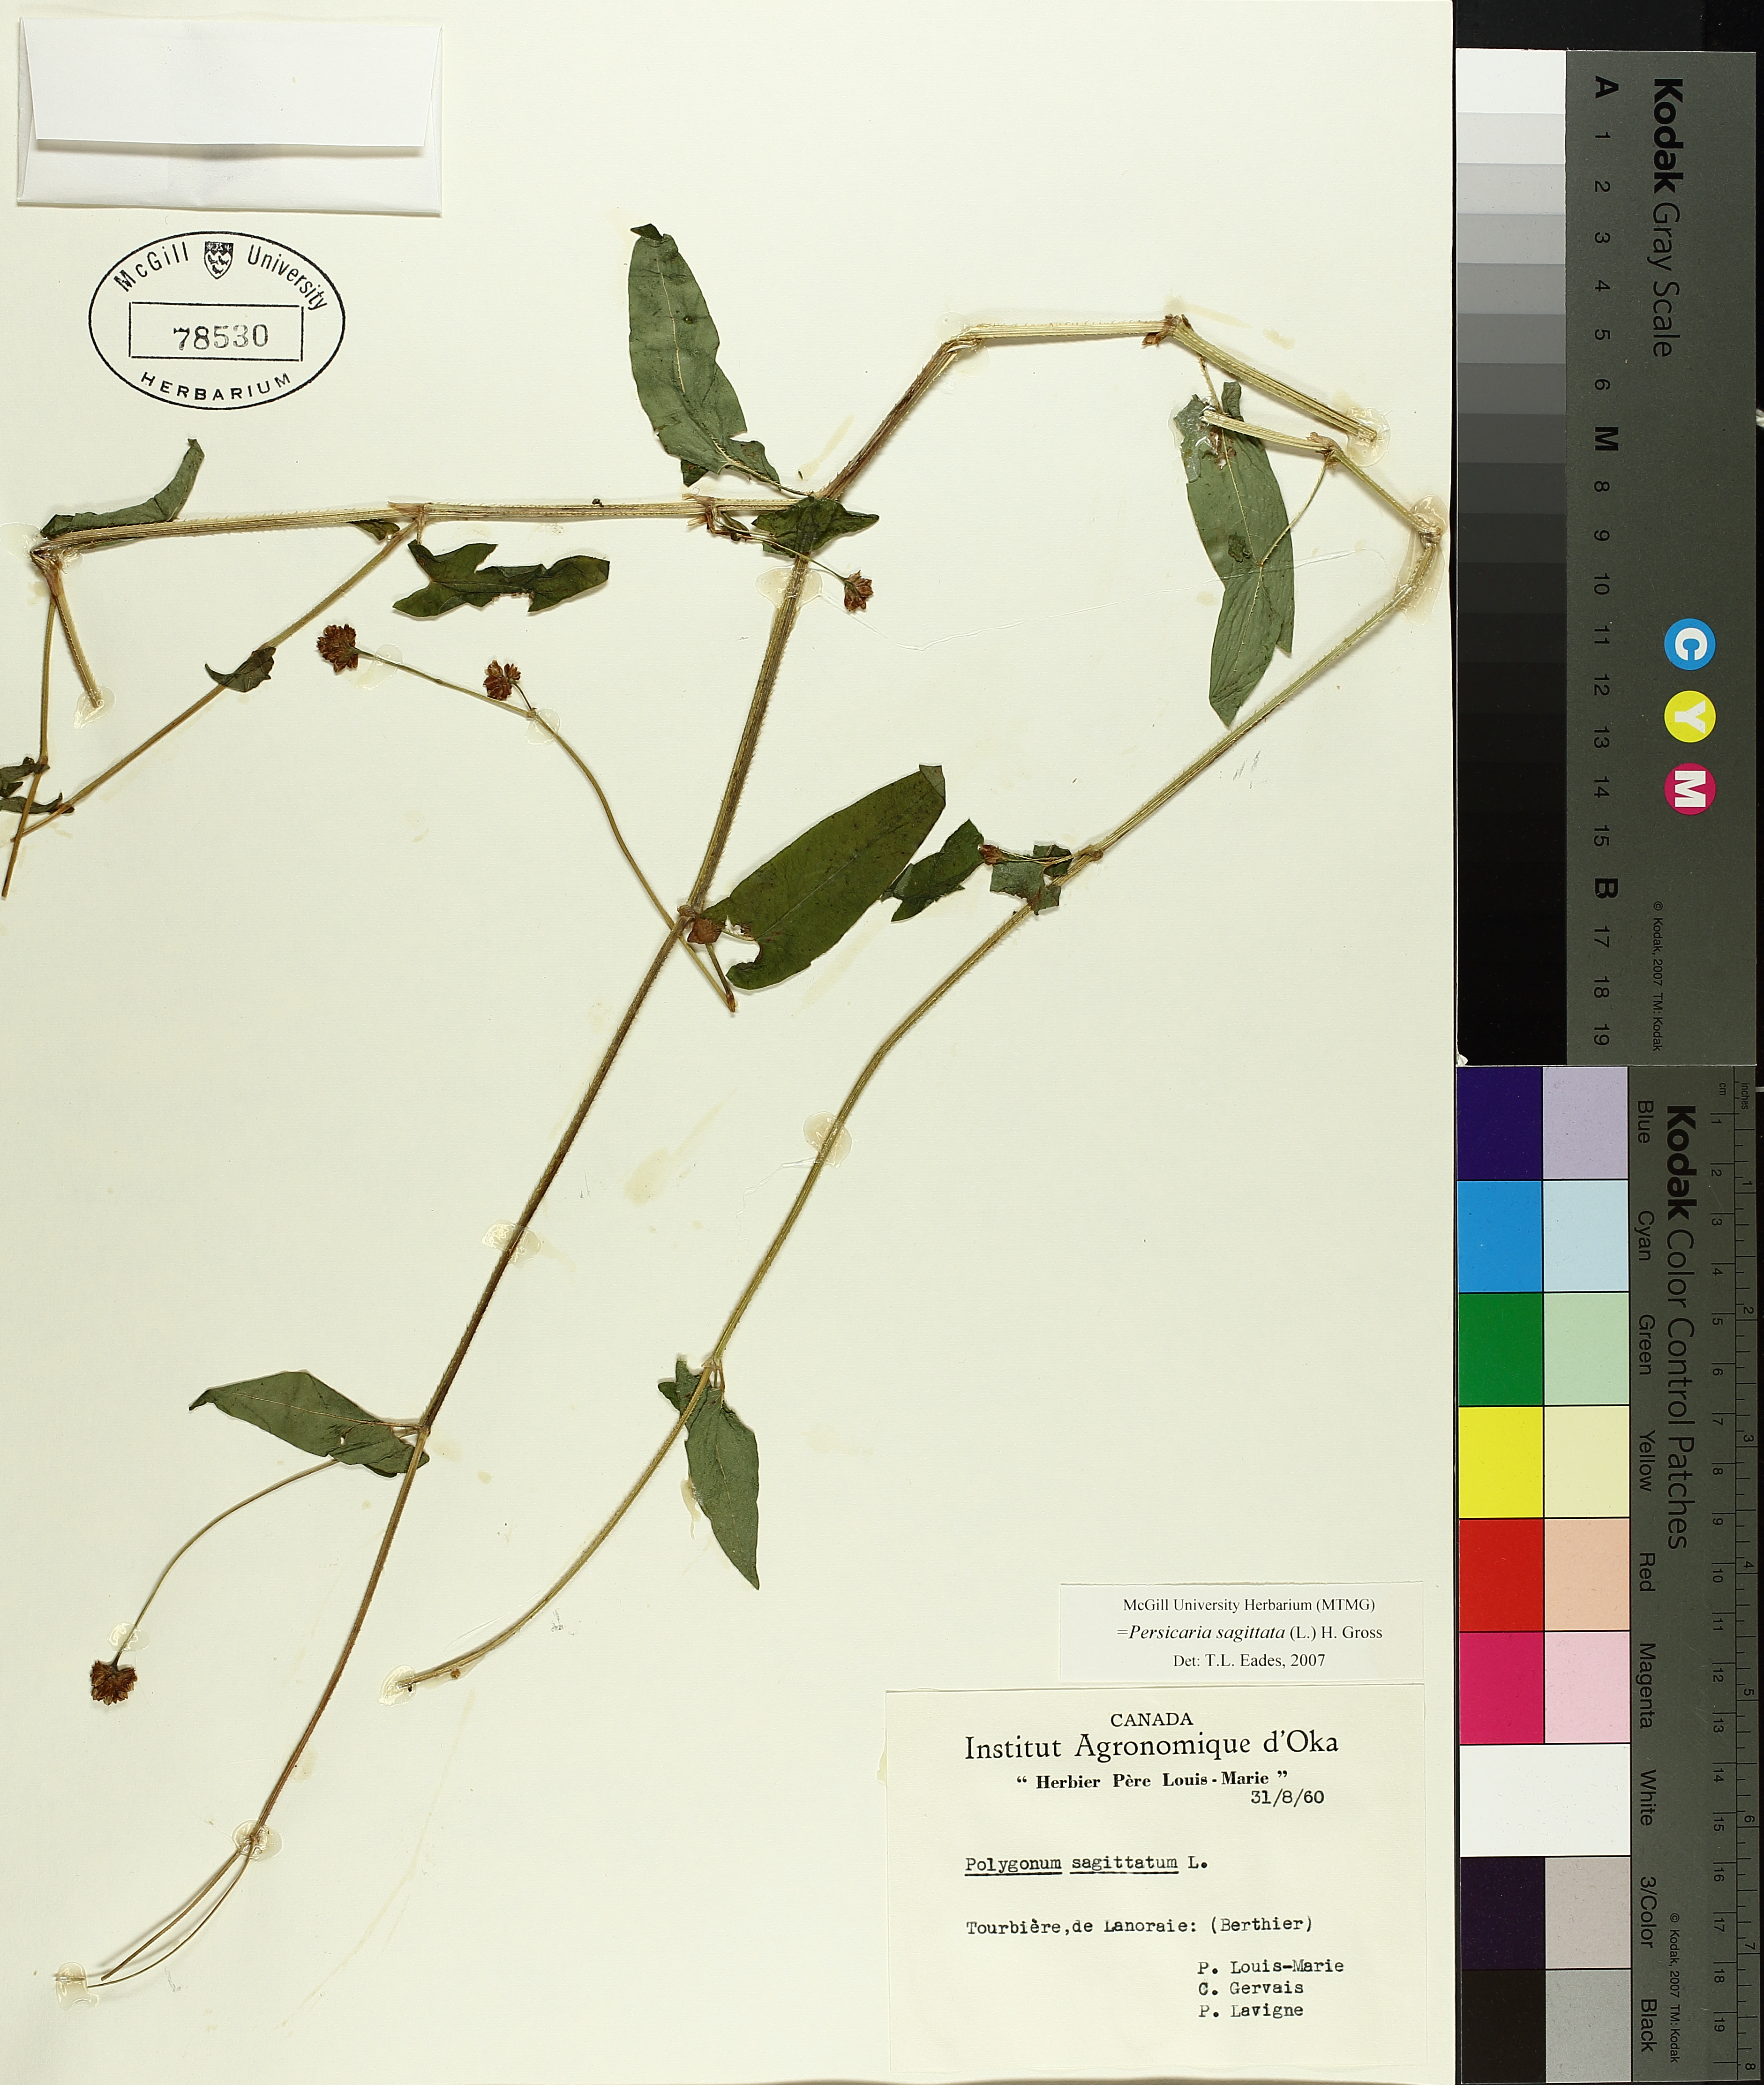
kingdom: Plantae
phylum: Tracheophyta
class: Magnoliopsida
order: Caryophyllales
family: Polygonaceae
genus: Persicaria
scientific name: Persicaria sagittata
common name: American tearthumb
